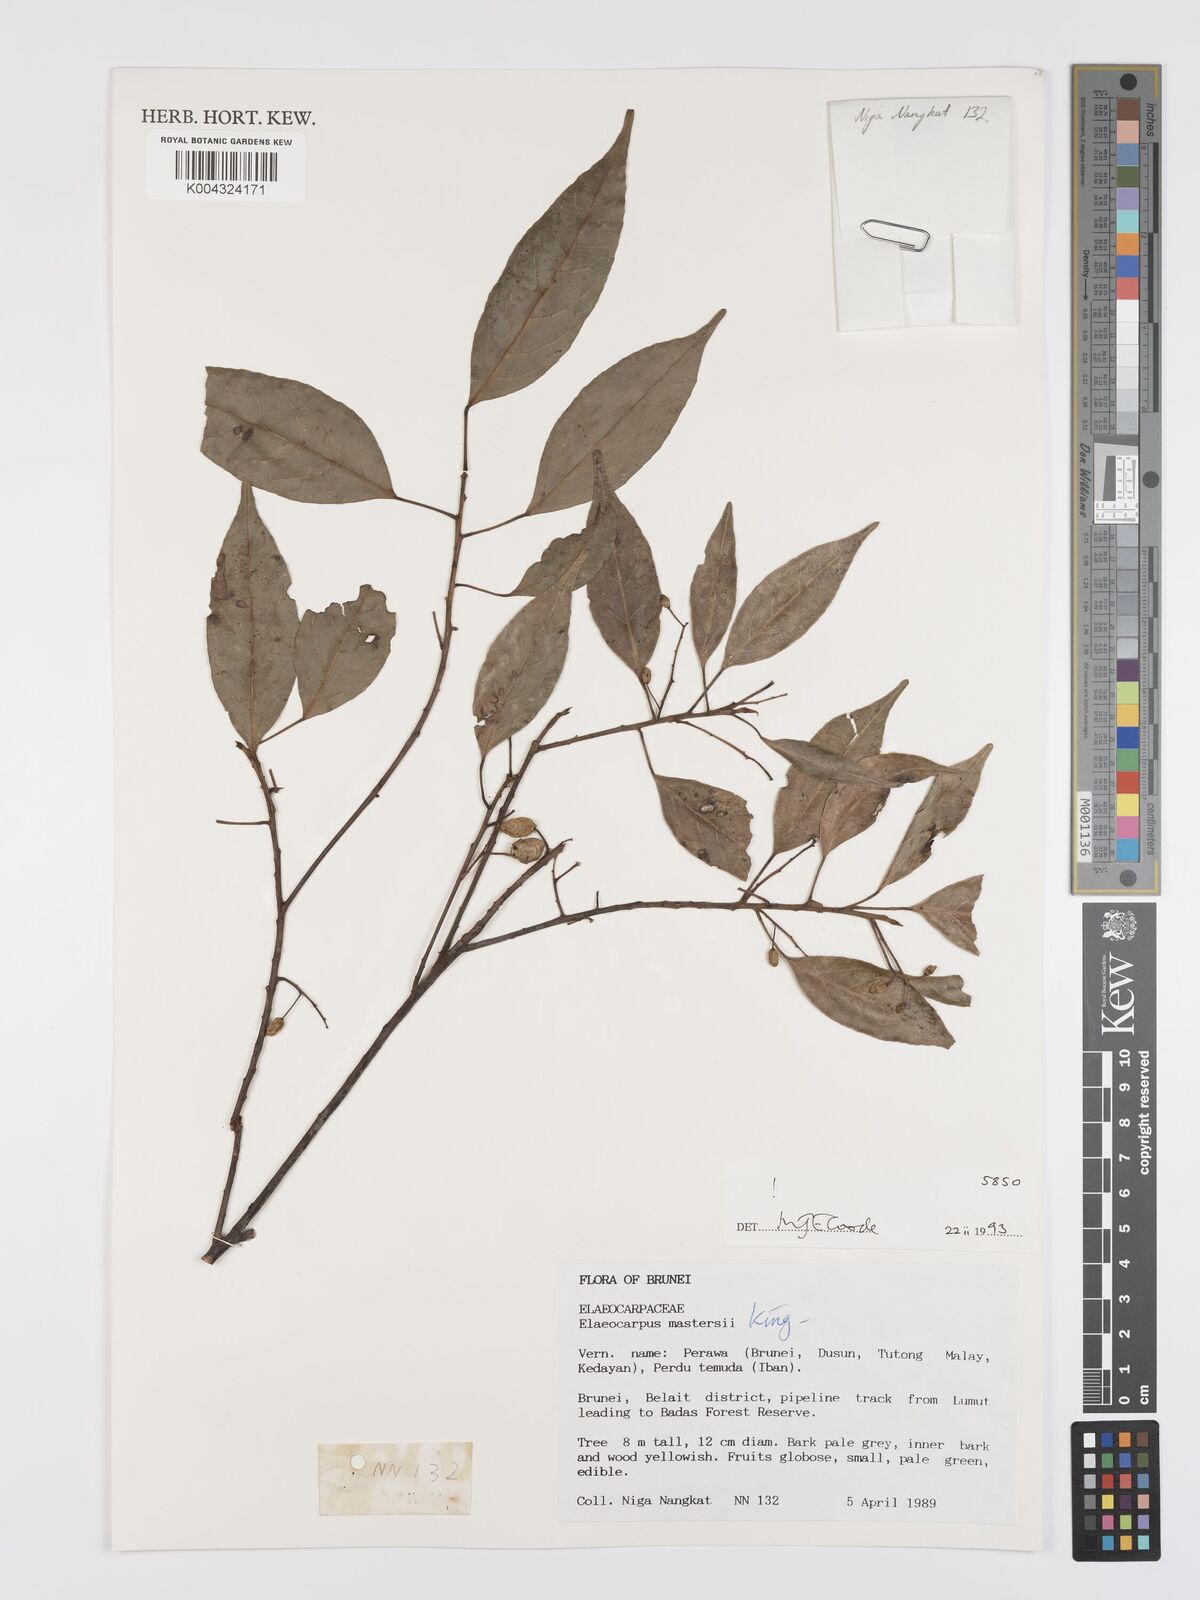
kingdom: Plantae
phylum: Tracheophyta
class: Magnoliopsida
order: Oxalidales
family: Elaeocarpaceae
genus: Elaeocarpus
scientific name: Elaeocarpus mastersii
